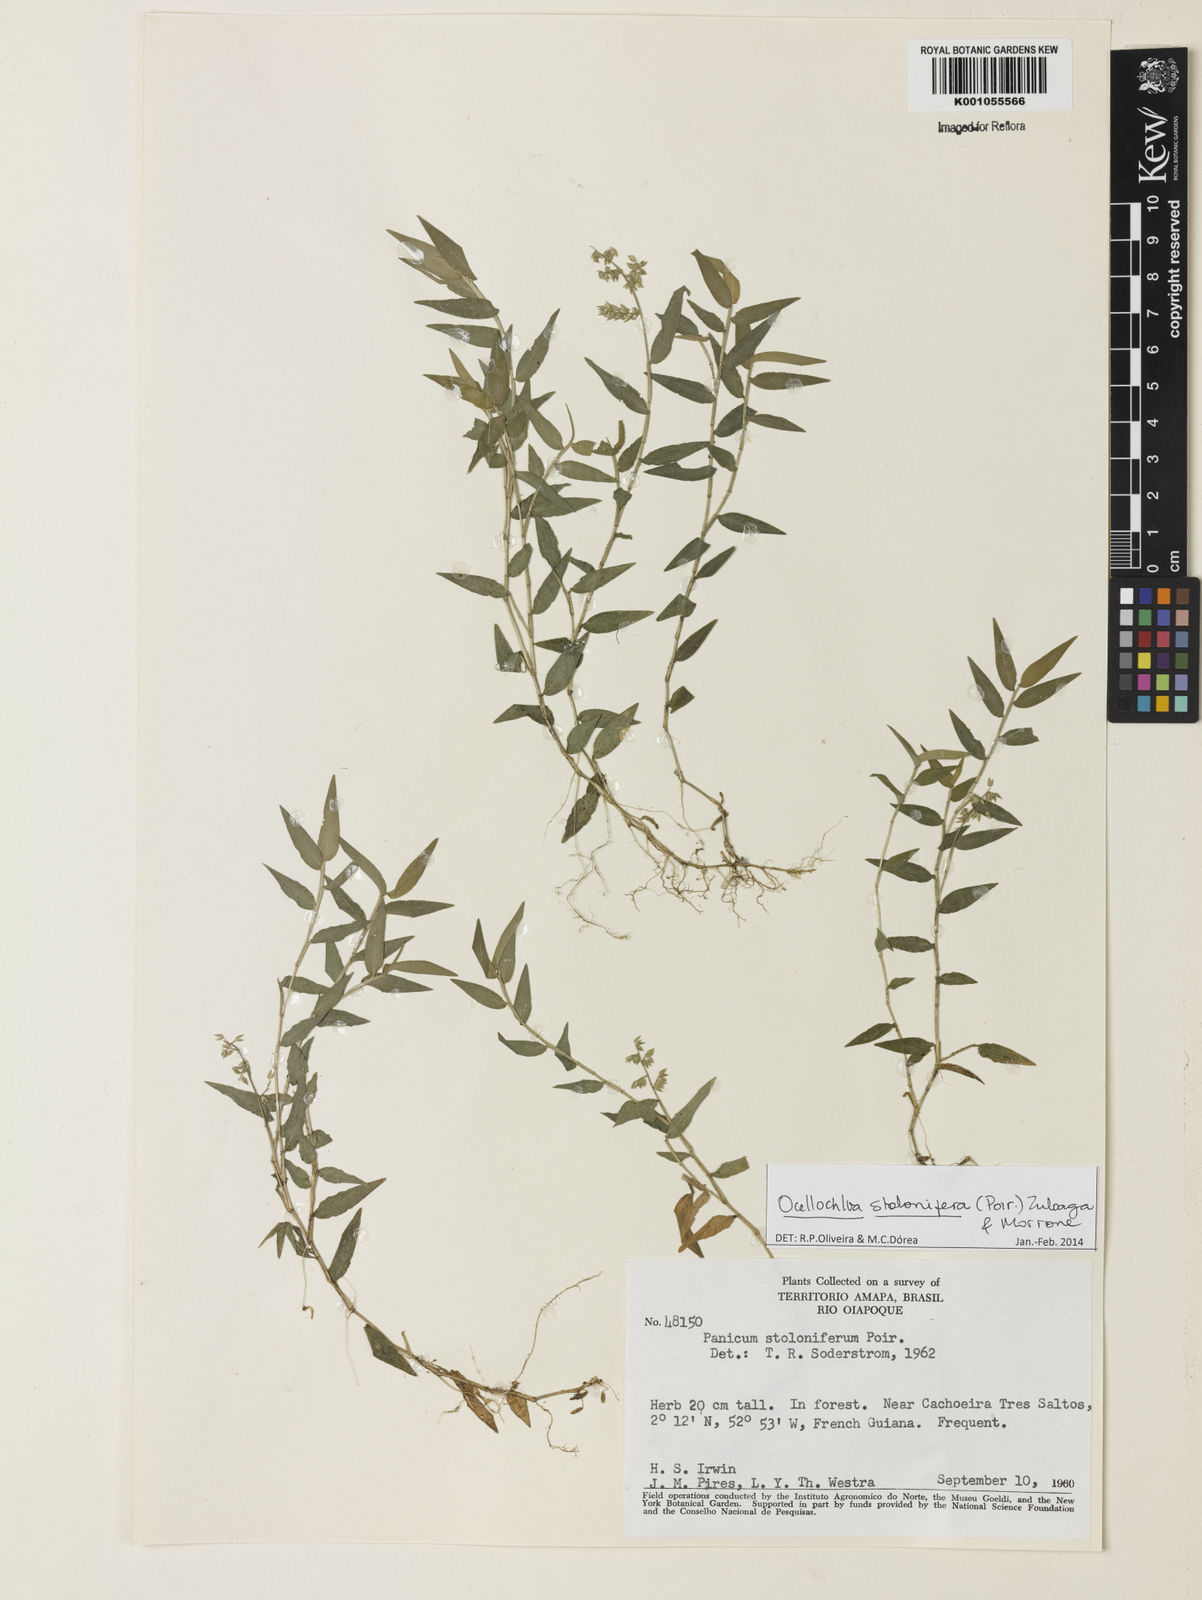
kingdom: Plantae
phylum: Tracheophyta
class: Liliopsida
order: Poales
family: Poaceae
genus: Ocellochloa
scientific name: Ocellochloa stolonifera
